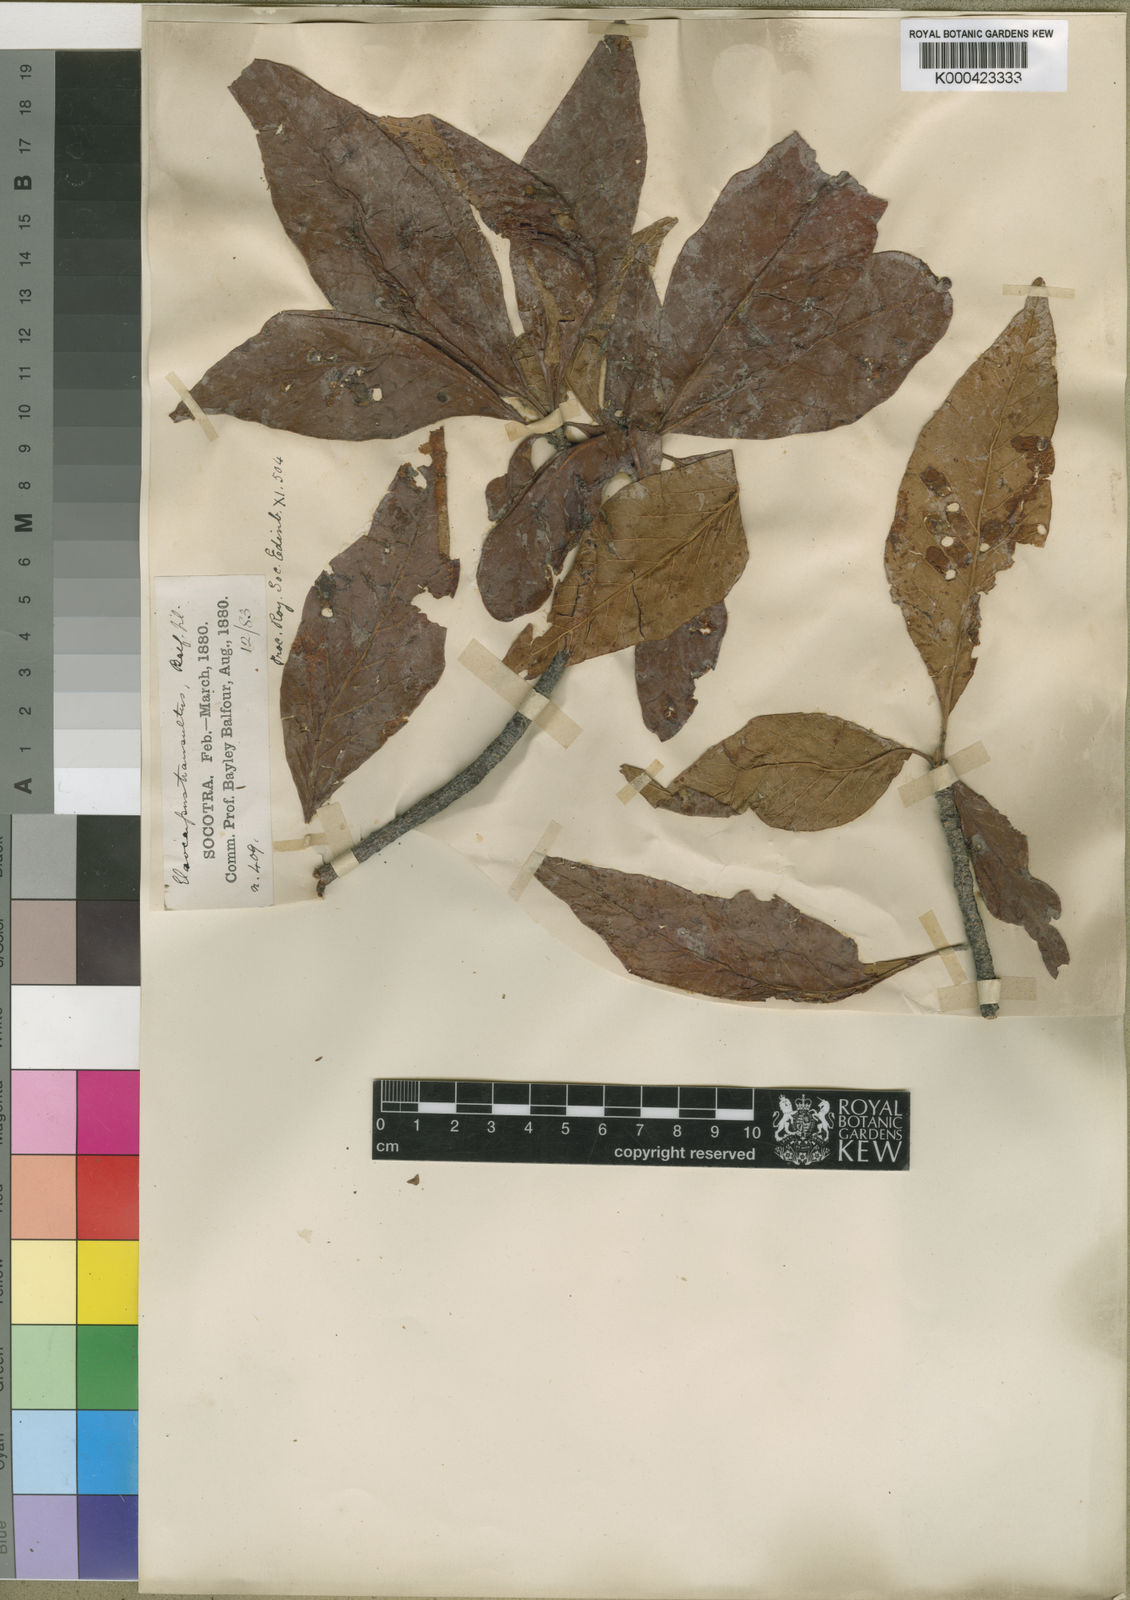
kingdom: Plantae
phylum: Tracheophyta
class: Magnoliopsida
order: Sapindales
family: Anacardiaceae
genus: Lannea
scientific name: Lannea transulta
